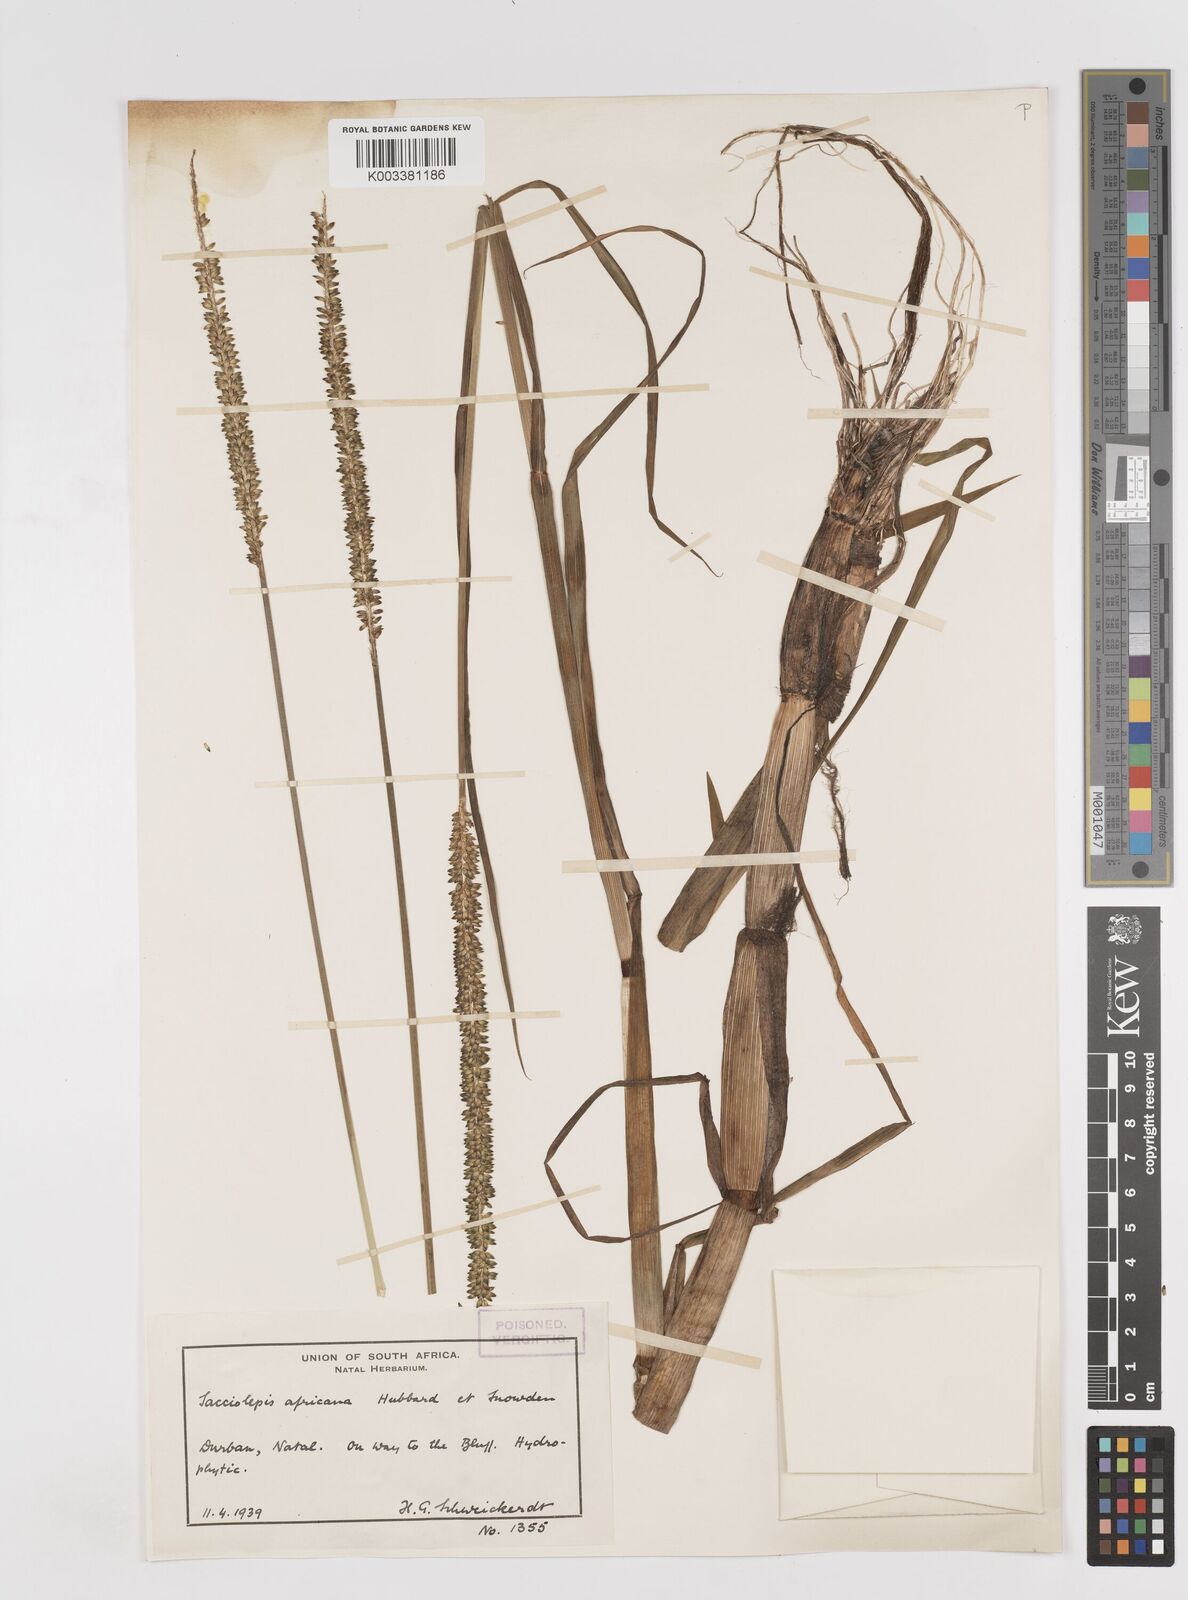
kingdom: Plantae
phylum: Tracheophyta
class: Liliopsida
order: Poales
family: Poaceae
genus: Sacciolepis
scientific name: Sacciolepis africana
